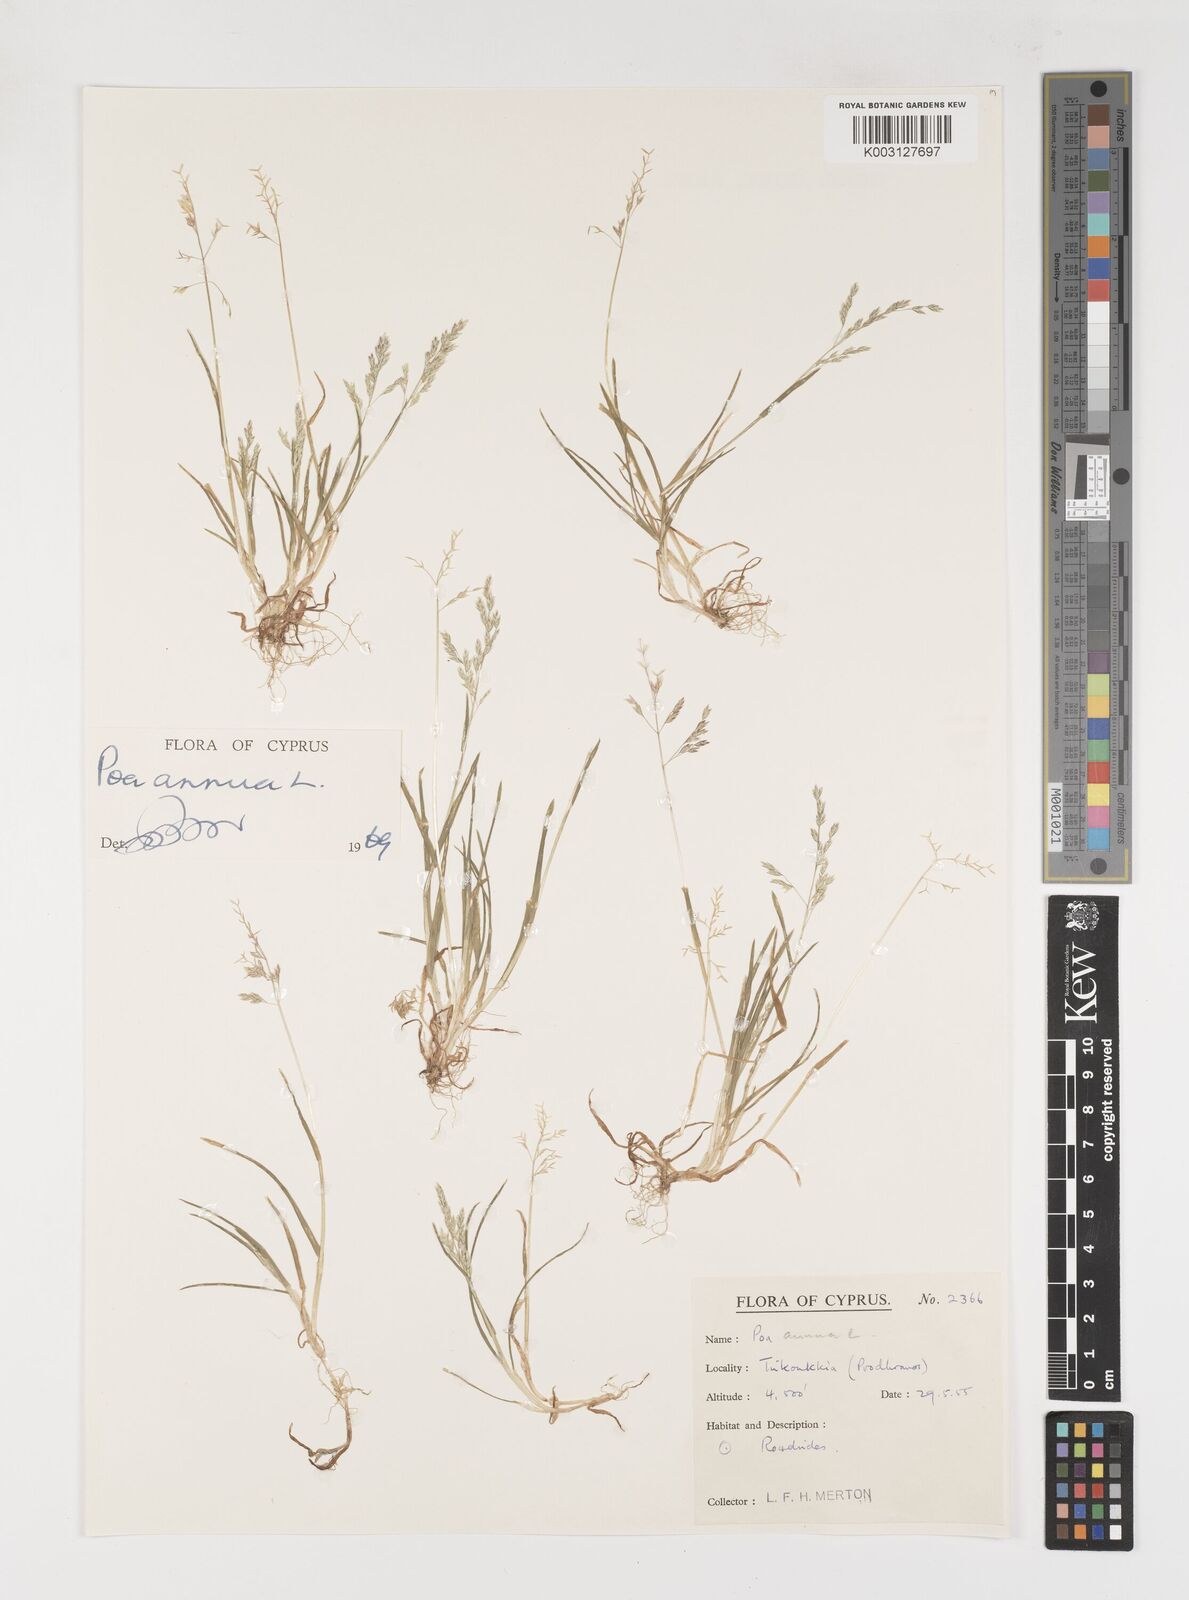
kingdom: Plantae
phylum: Tracheophyta
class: Liliopsida
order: Poales
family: Poaceae
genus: Poa
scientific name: Poa annua
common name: Annual bluegrass
